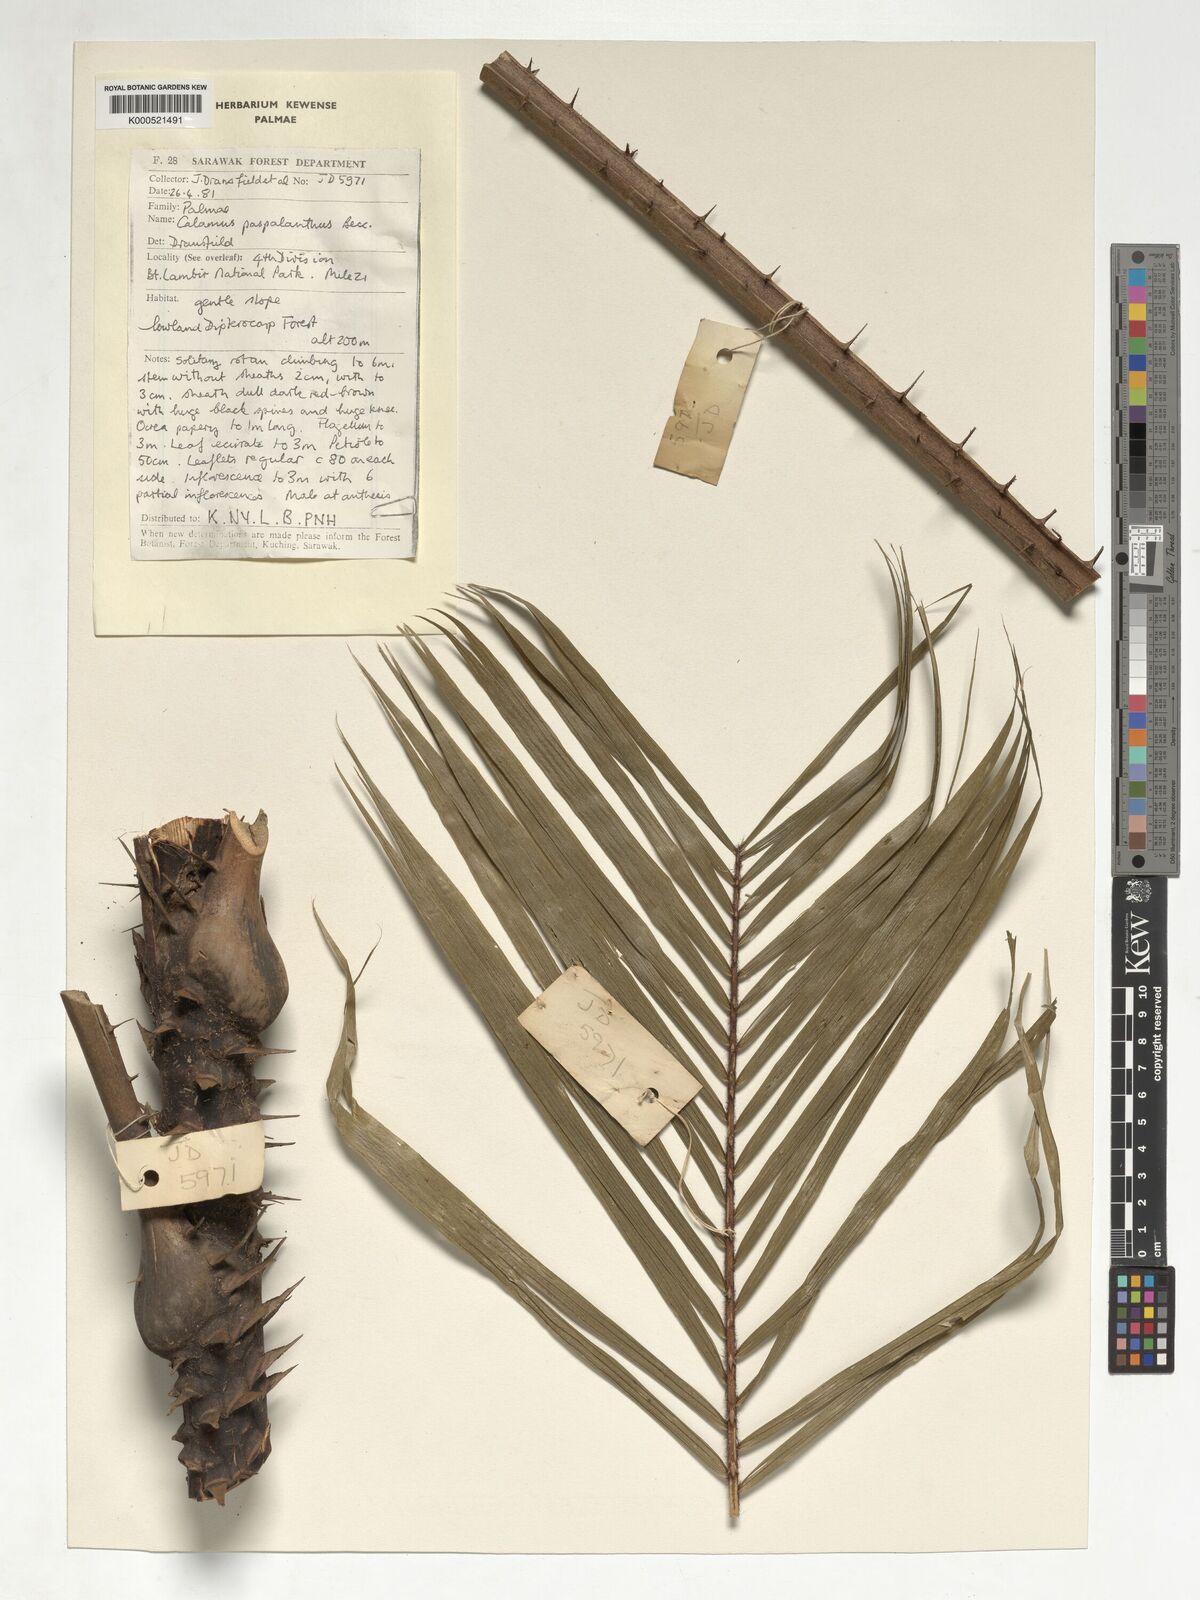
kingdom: Plantae
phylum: Tracheophyta
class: Liliopsida
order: Arecales
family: Arecaceae
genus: Calamus
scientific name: Calamus paspalanthus
